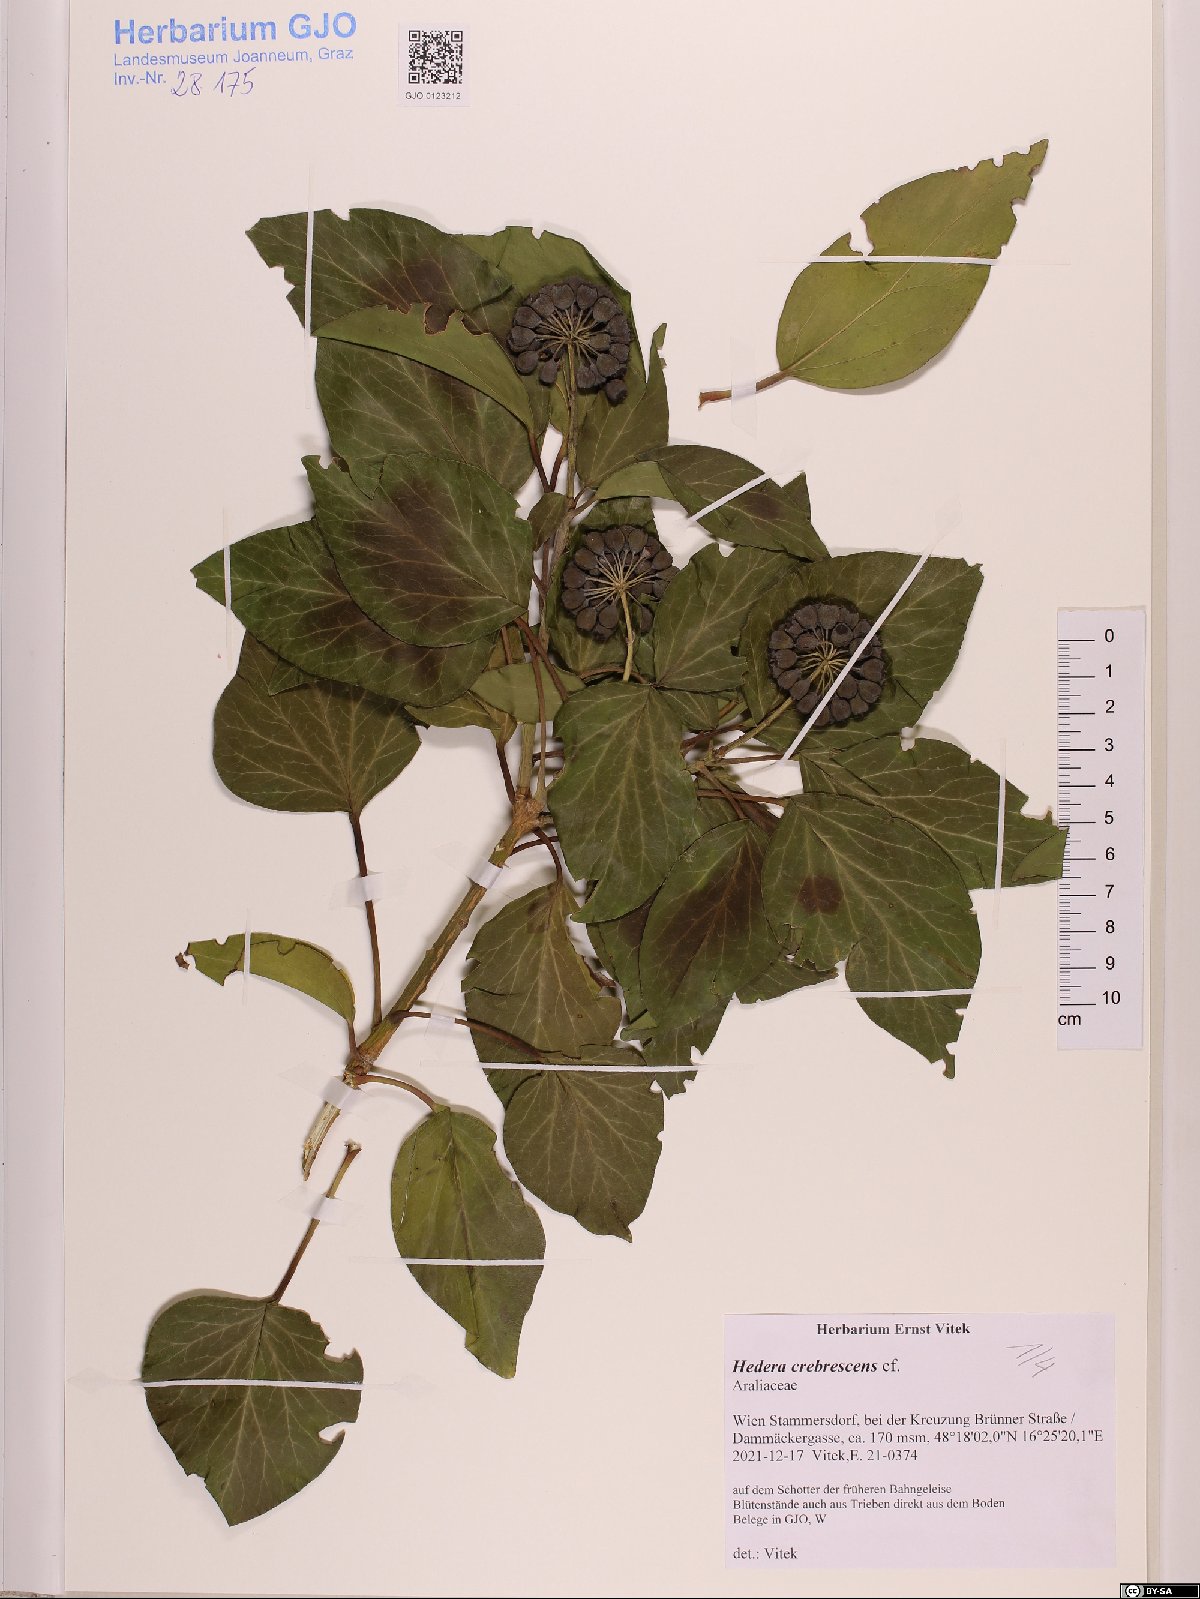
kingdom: Plantae
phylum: Tracheophyta
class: Magnoliopsida
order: Apiales
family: Araliaceae
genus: Hedera
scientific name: Hedera crebrescens
